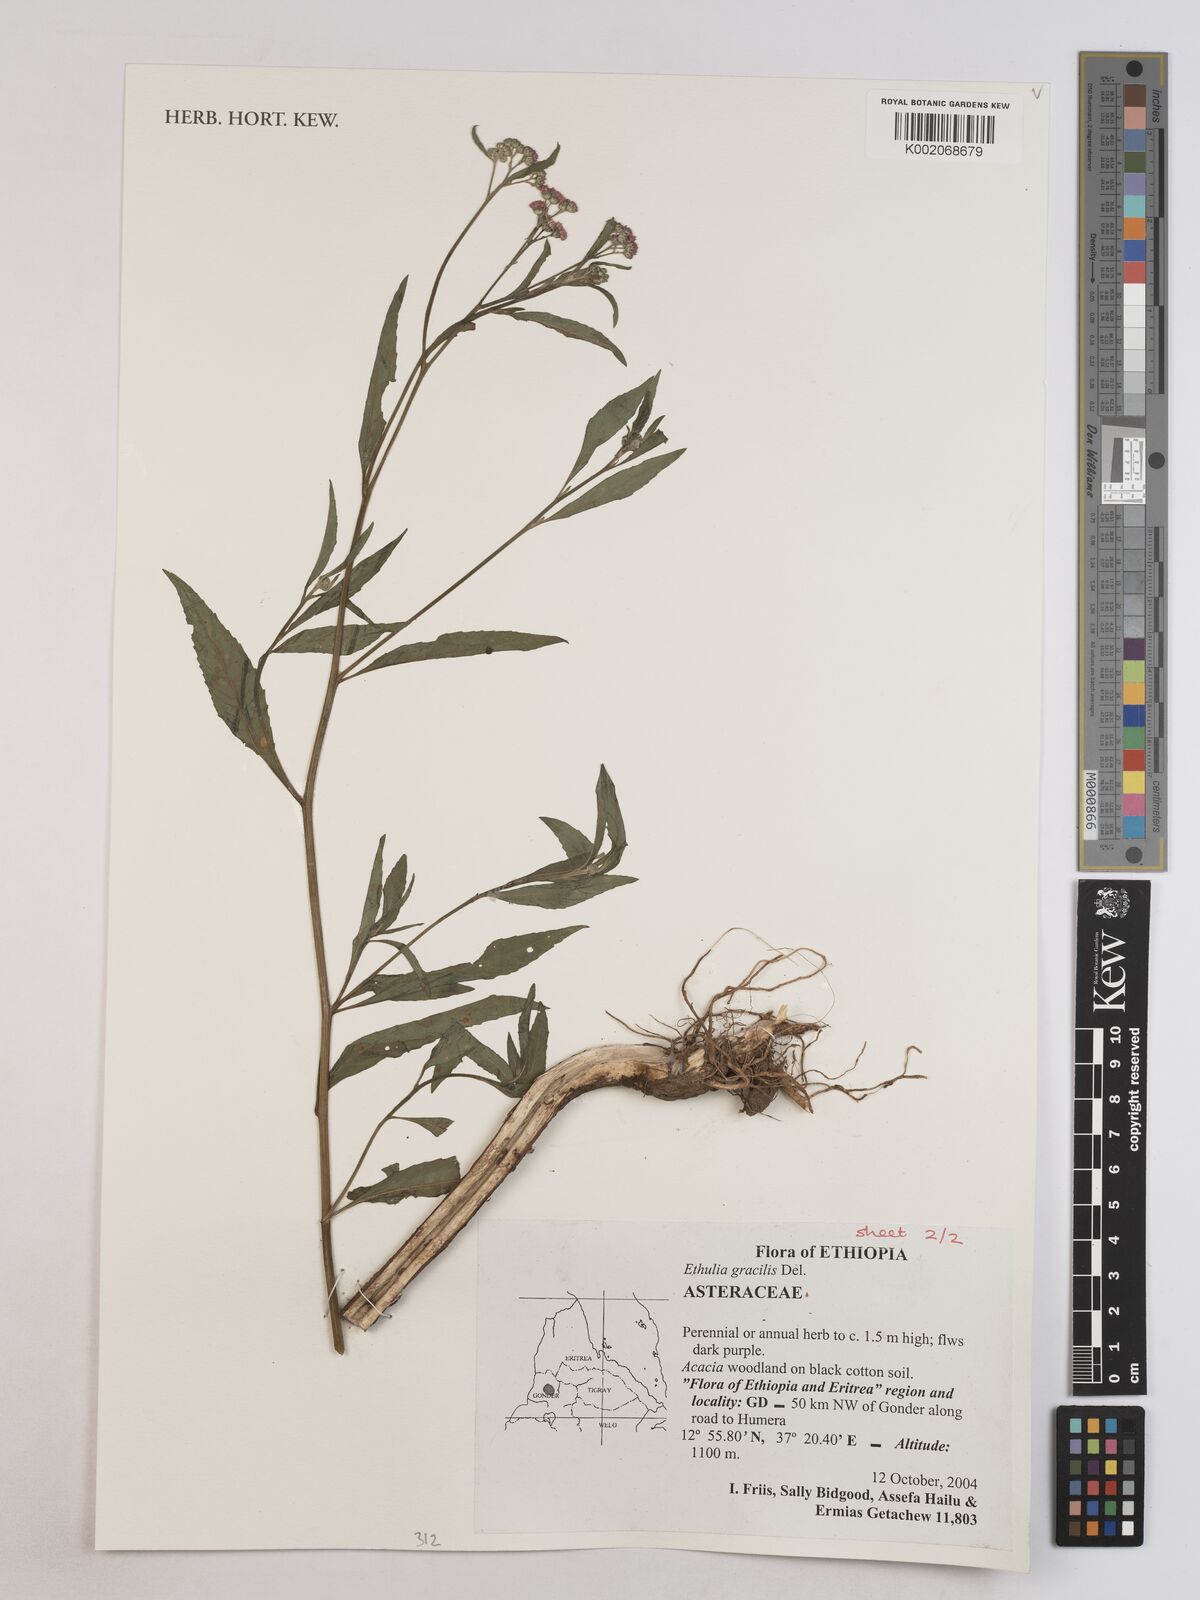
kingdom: Plantae
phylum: Tracheophyta
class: Magnoliopsida
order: Asterales
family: Asteraceae
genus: Ethulia
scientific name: Ethulia gracilis
